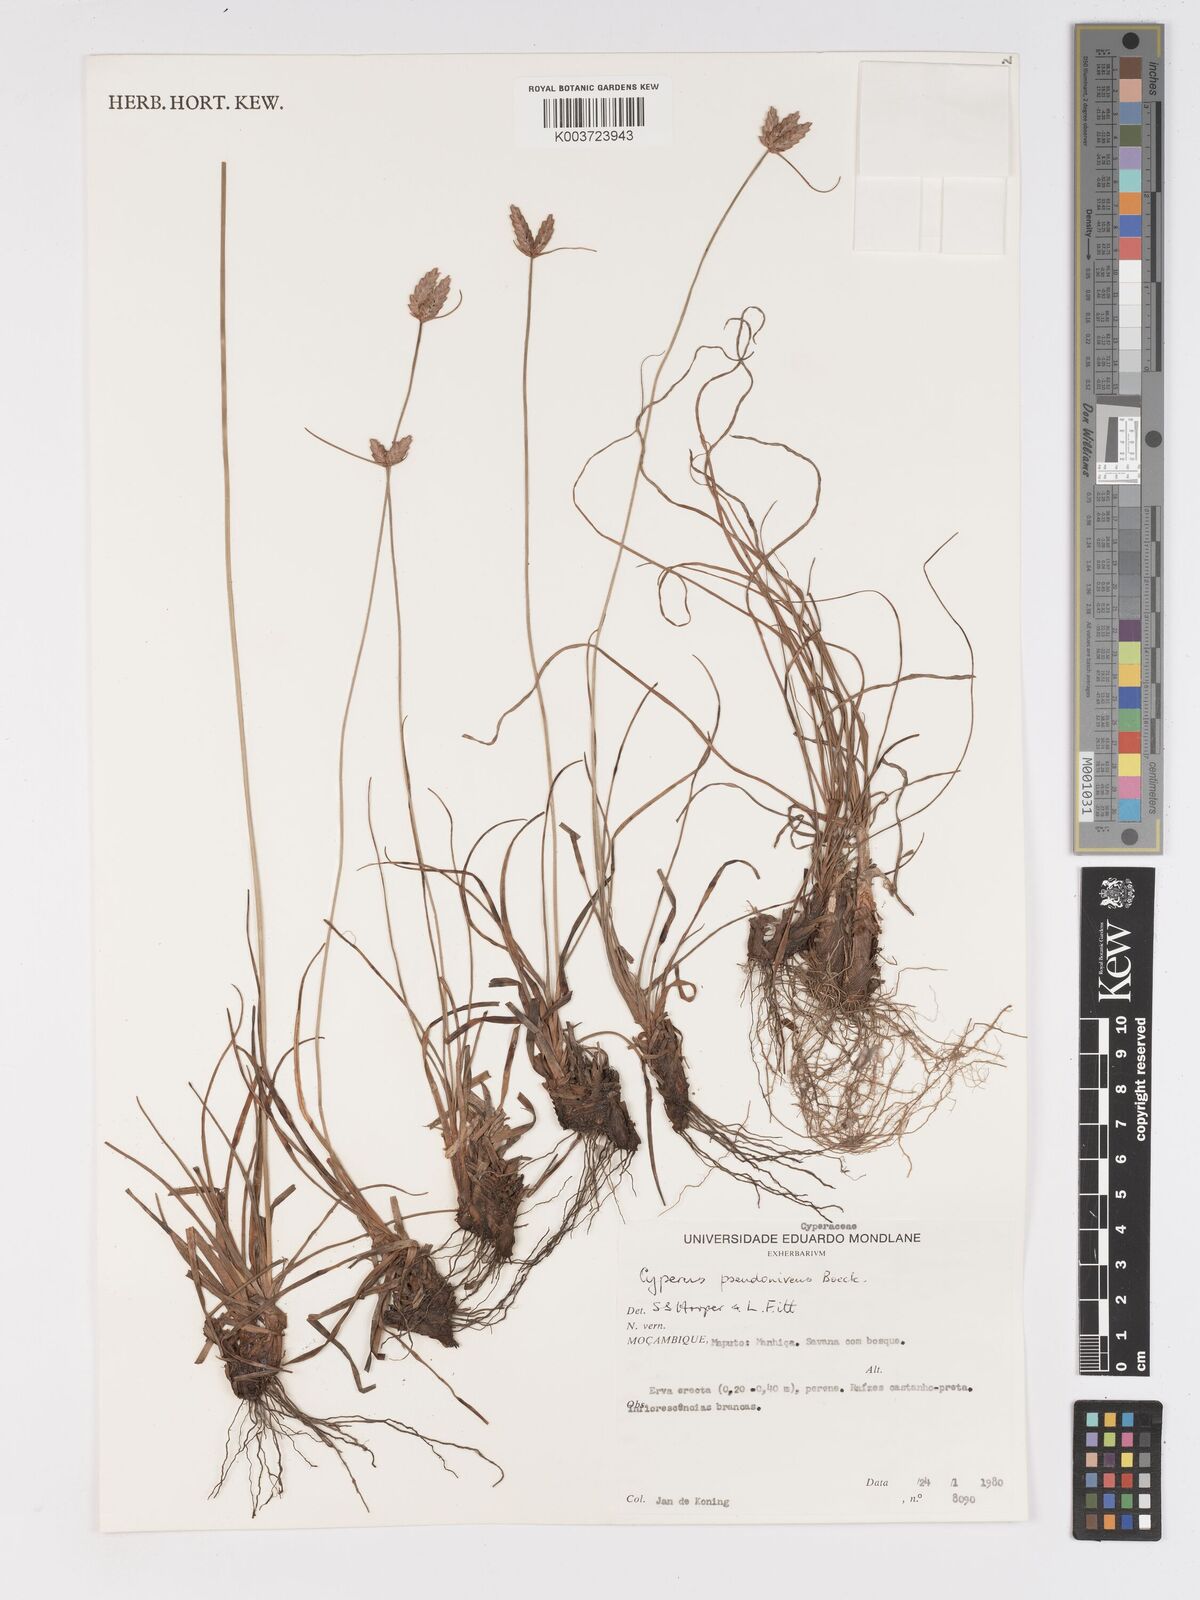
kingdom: Plantae
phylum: Tracheophyta
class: Liliopsida
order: Poales
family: Cyperaceae
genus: Cyperus
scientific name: Cyperus margaritaceus
